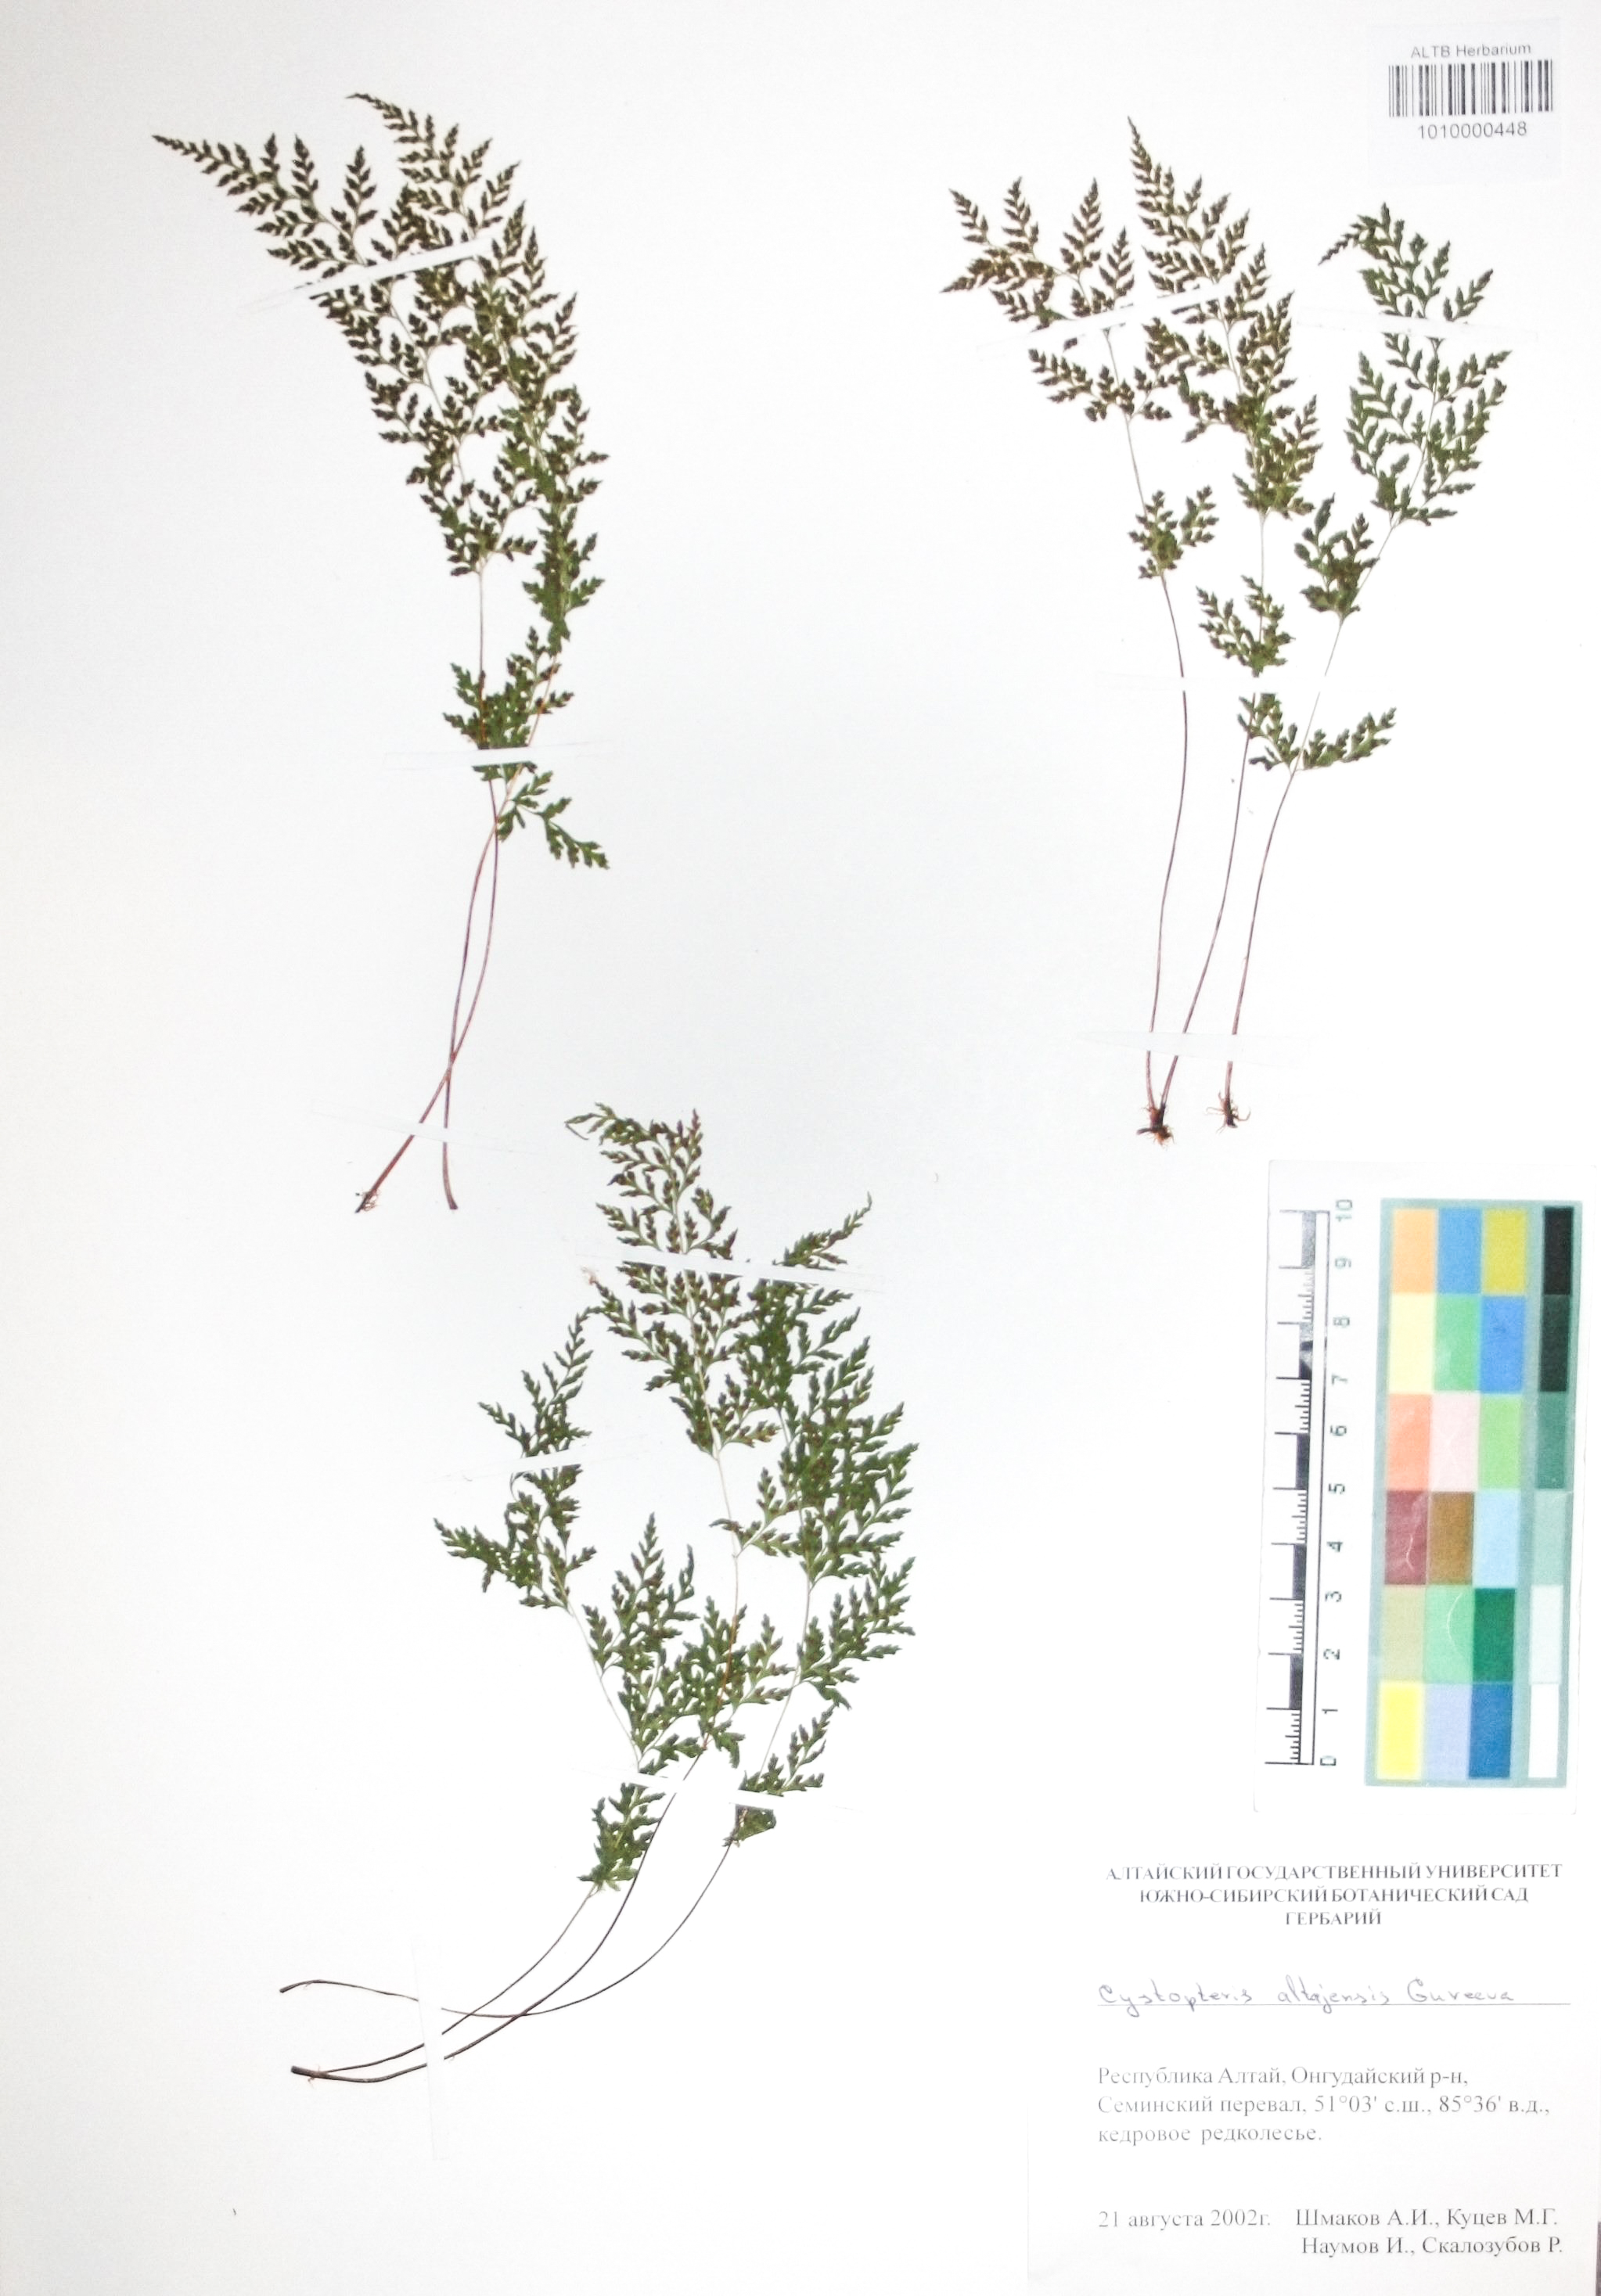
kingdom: Plantae
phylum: Tracheophyta
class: Polypodiopsida
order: Polypodiales
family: Cystopteridaceae
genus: Cystopteris
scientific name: Cystopteris diaphana
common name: Greenish bladder-fern
